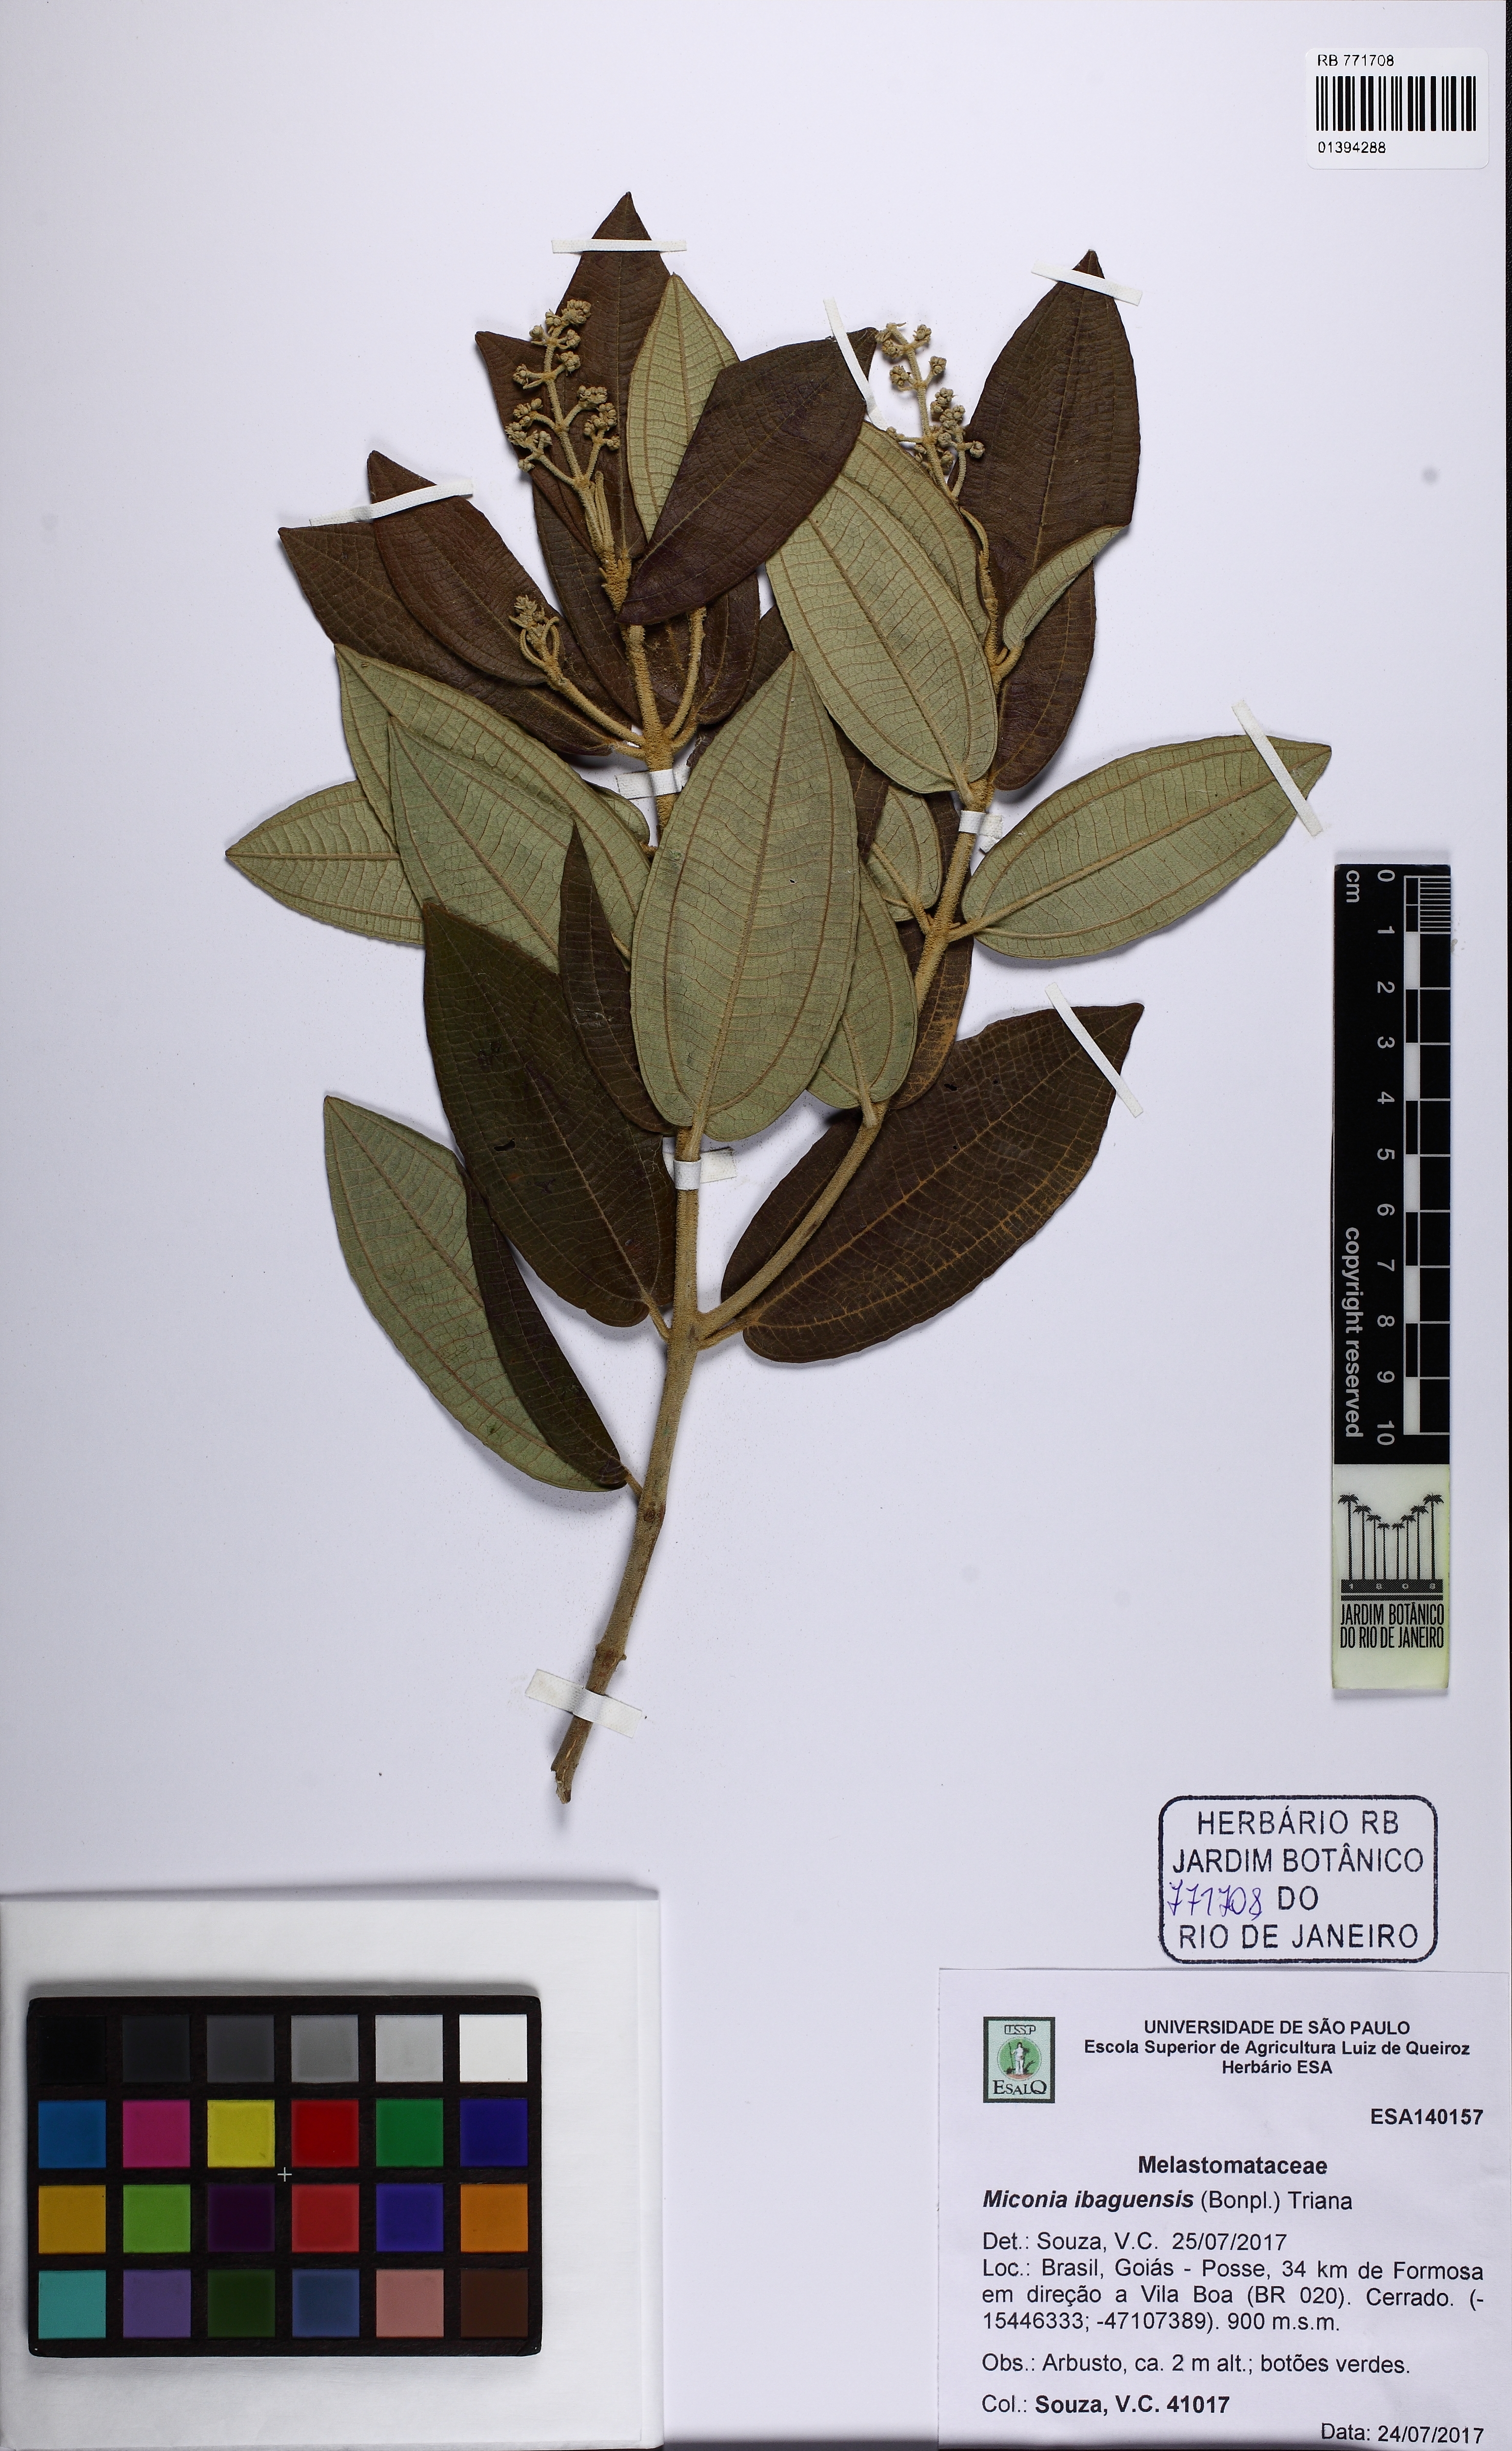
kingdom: Plantae
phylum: Tracheophyta
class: Magnoliopsida
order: Myrtales
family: Melastomataceae
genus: Miconia
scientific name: Miconia burchellii
